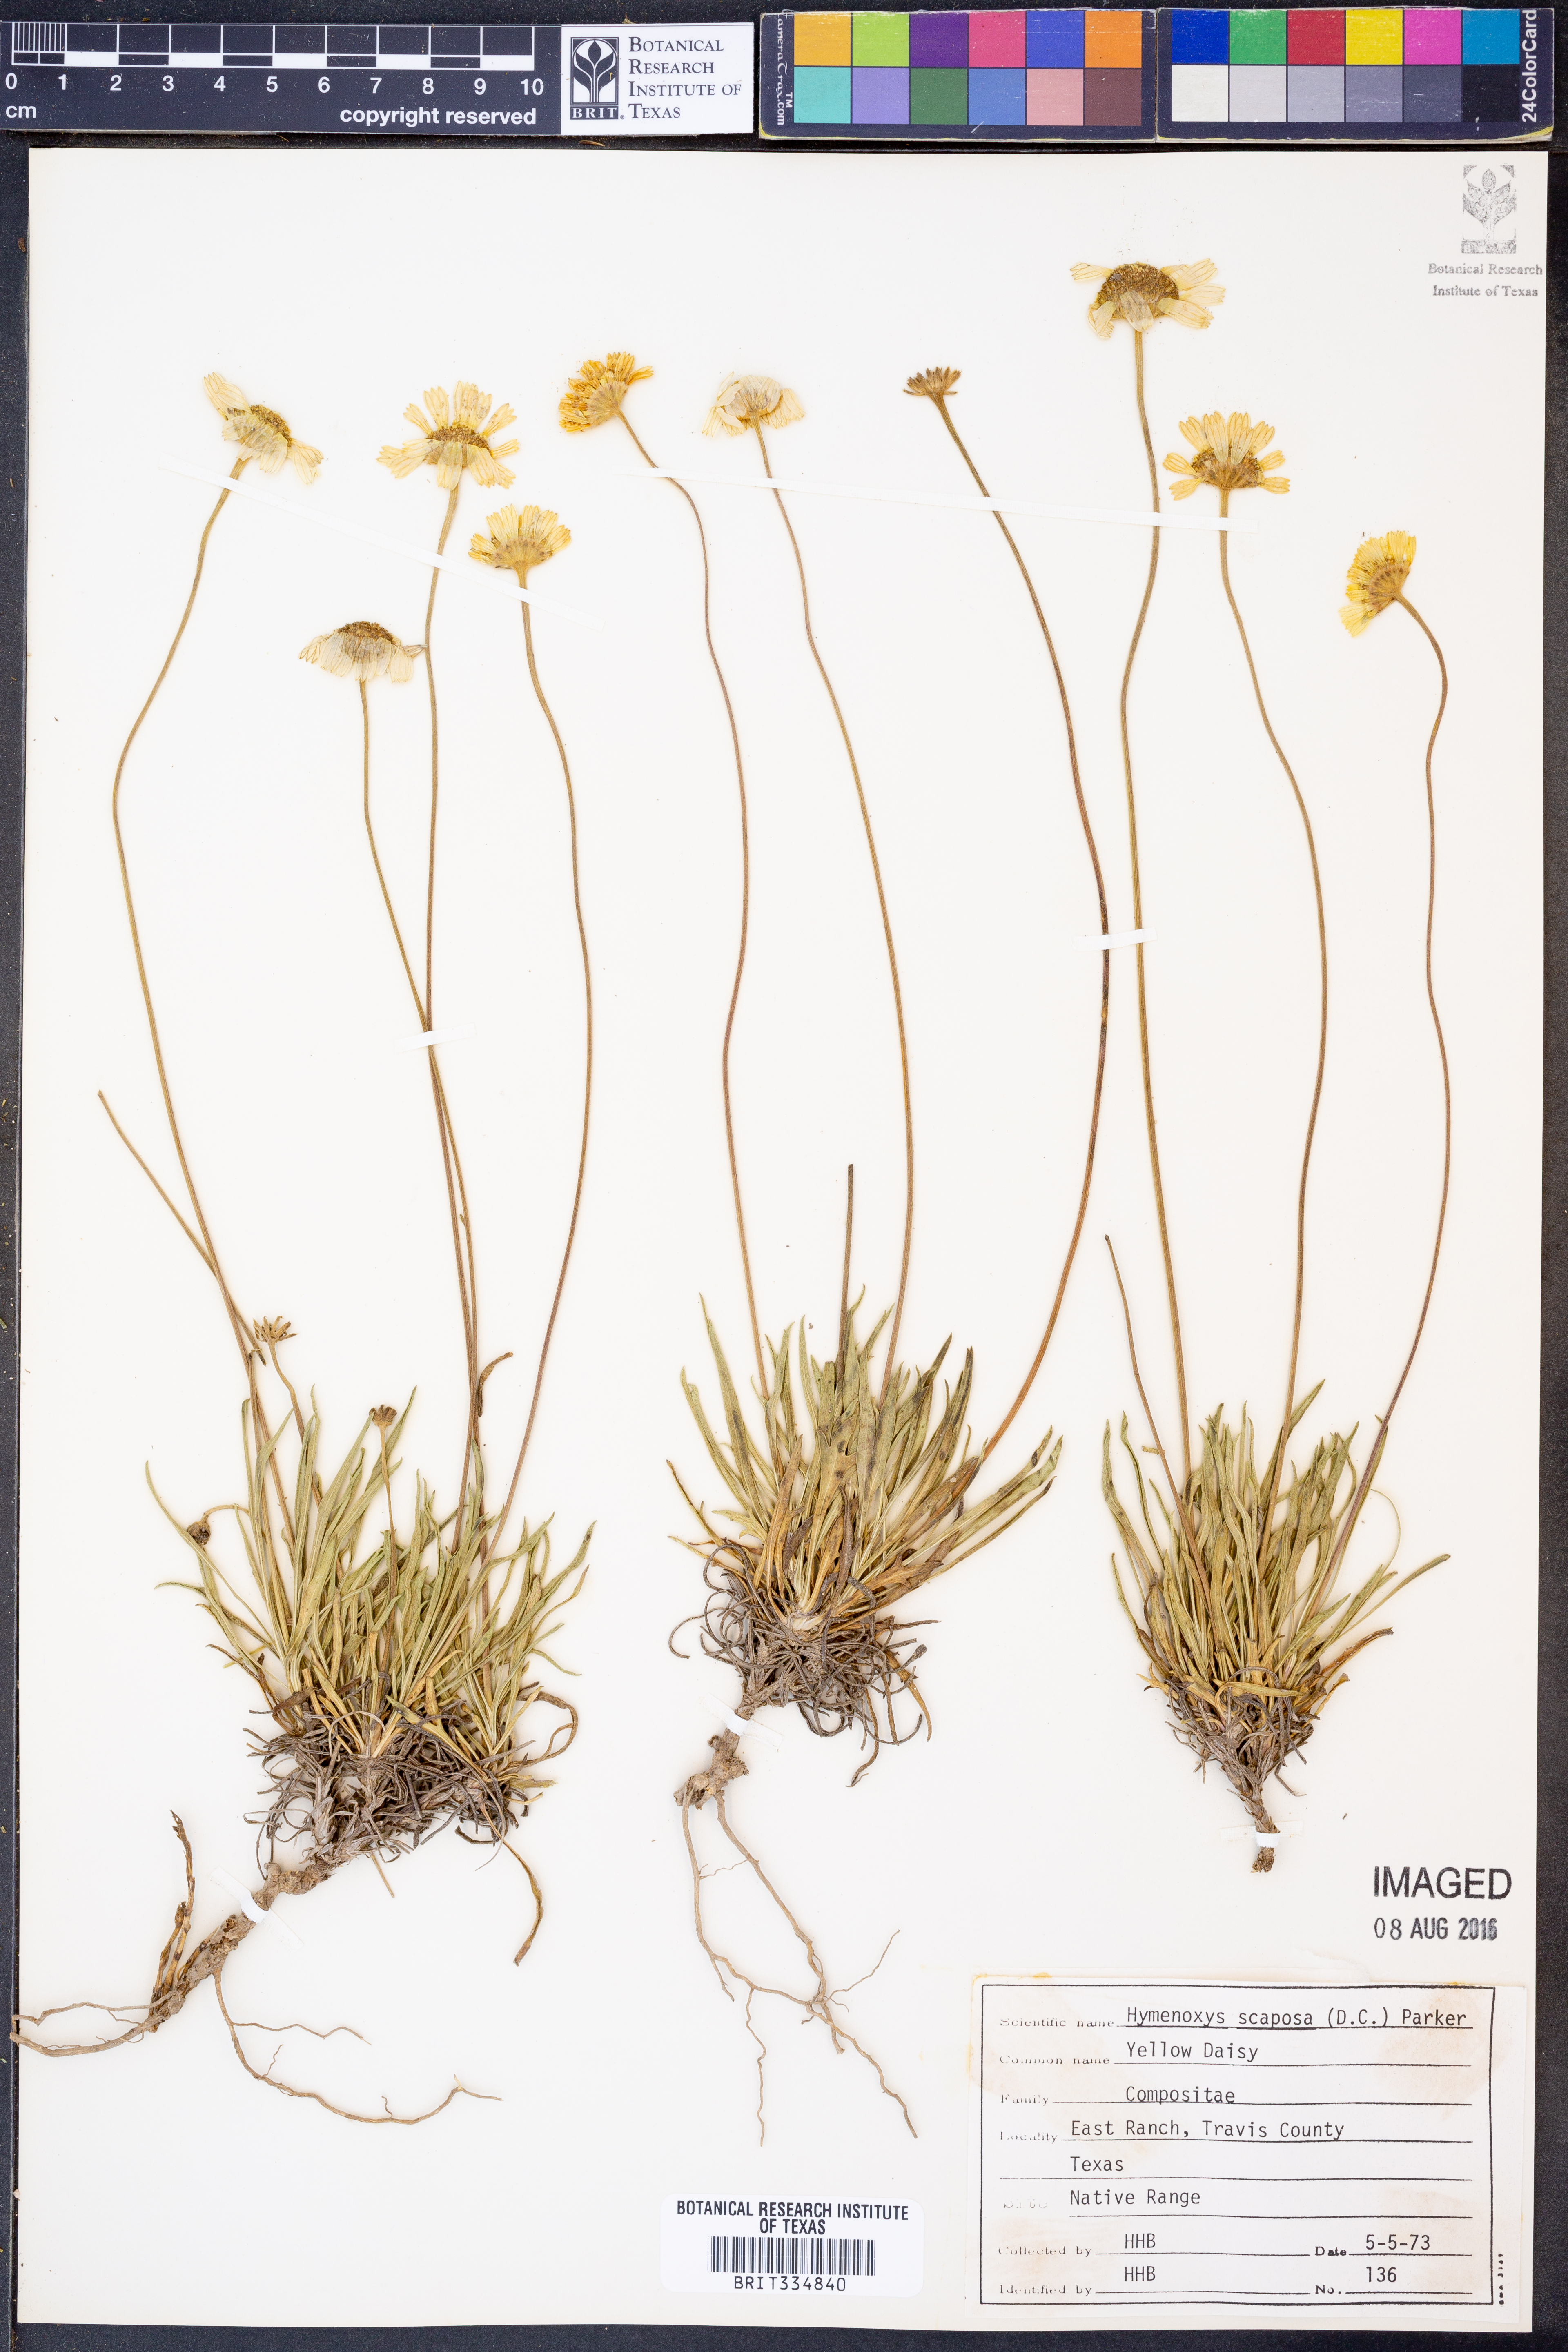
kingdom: Plantae
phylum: Tracheophyta
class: Magnoliopsida
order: Asterales
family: Asteraceae
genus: Tetraneuris
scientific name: Tetraneuris scaposa
